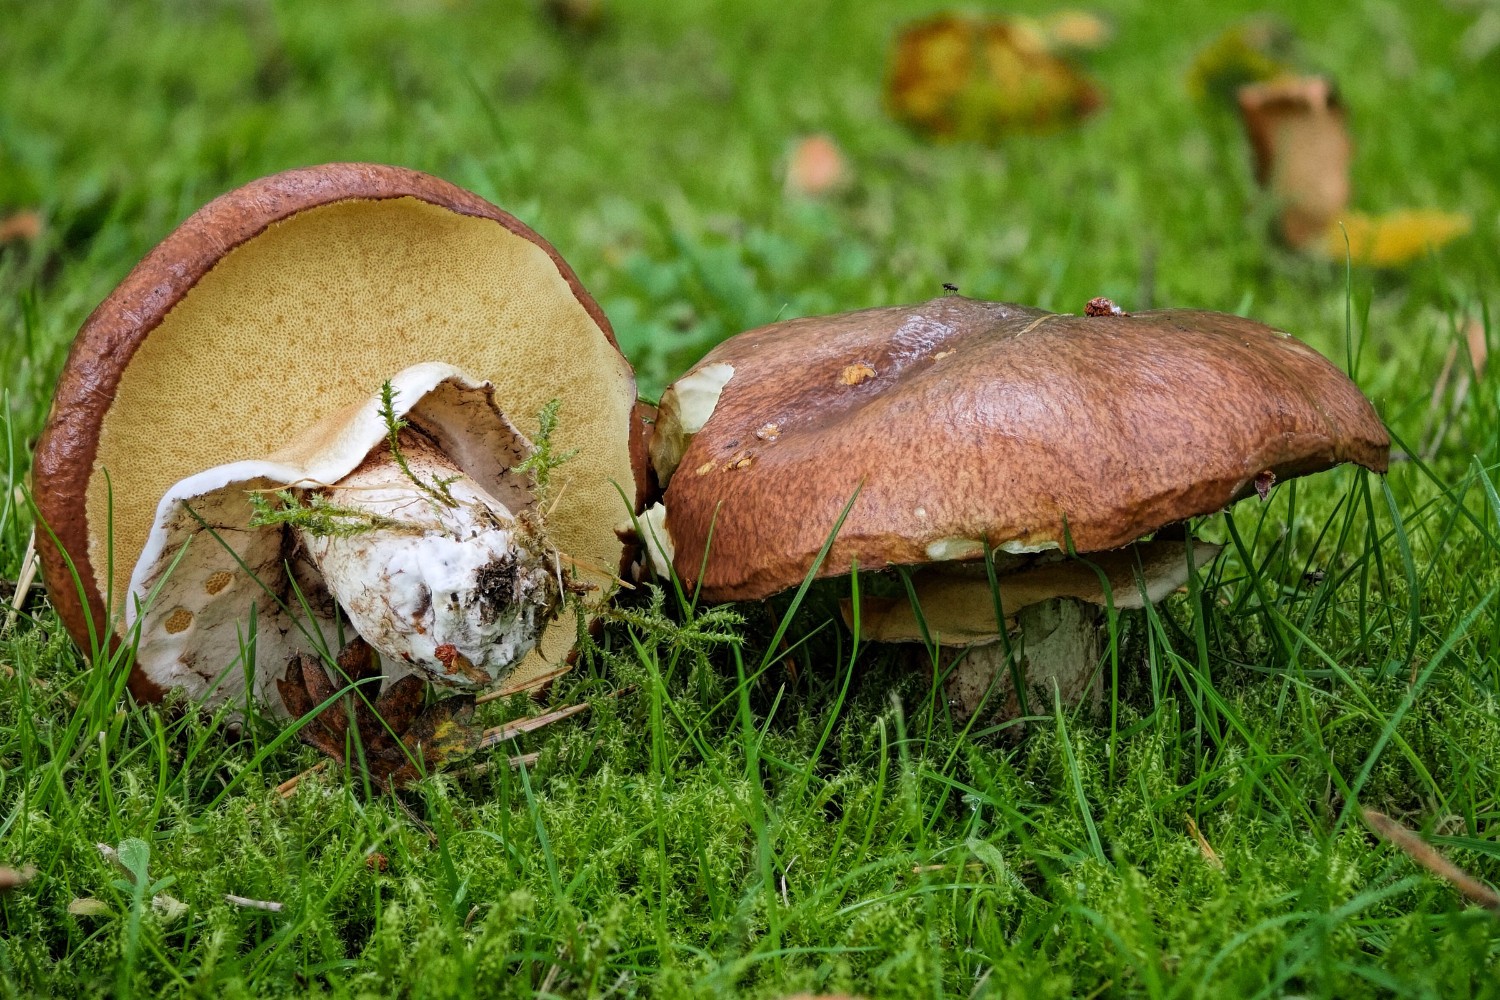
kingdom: Fungi
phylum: Basidiomycota
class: Agaricomycetes
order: Boletales
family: Suillaceae
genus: Suillus
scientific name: Suillus luteus
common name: brungul slimrørhat
